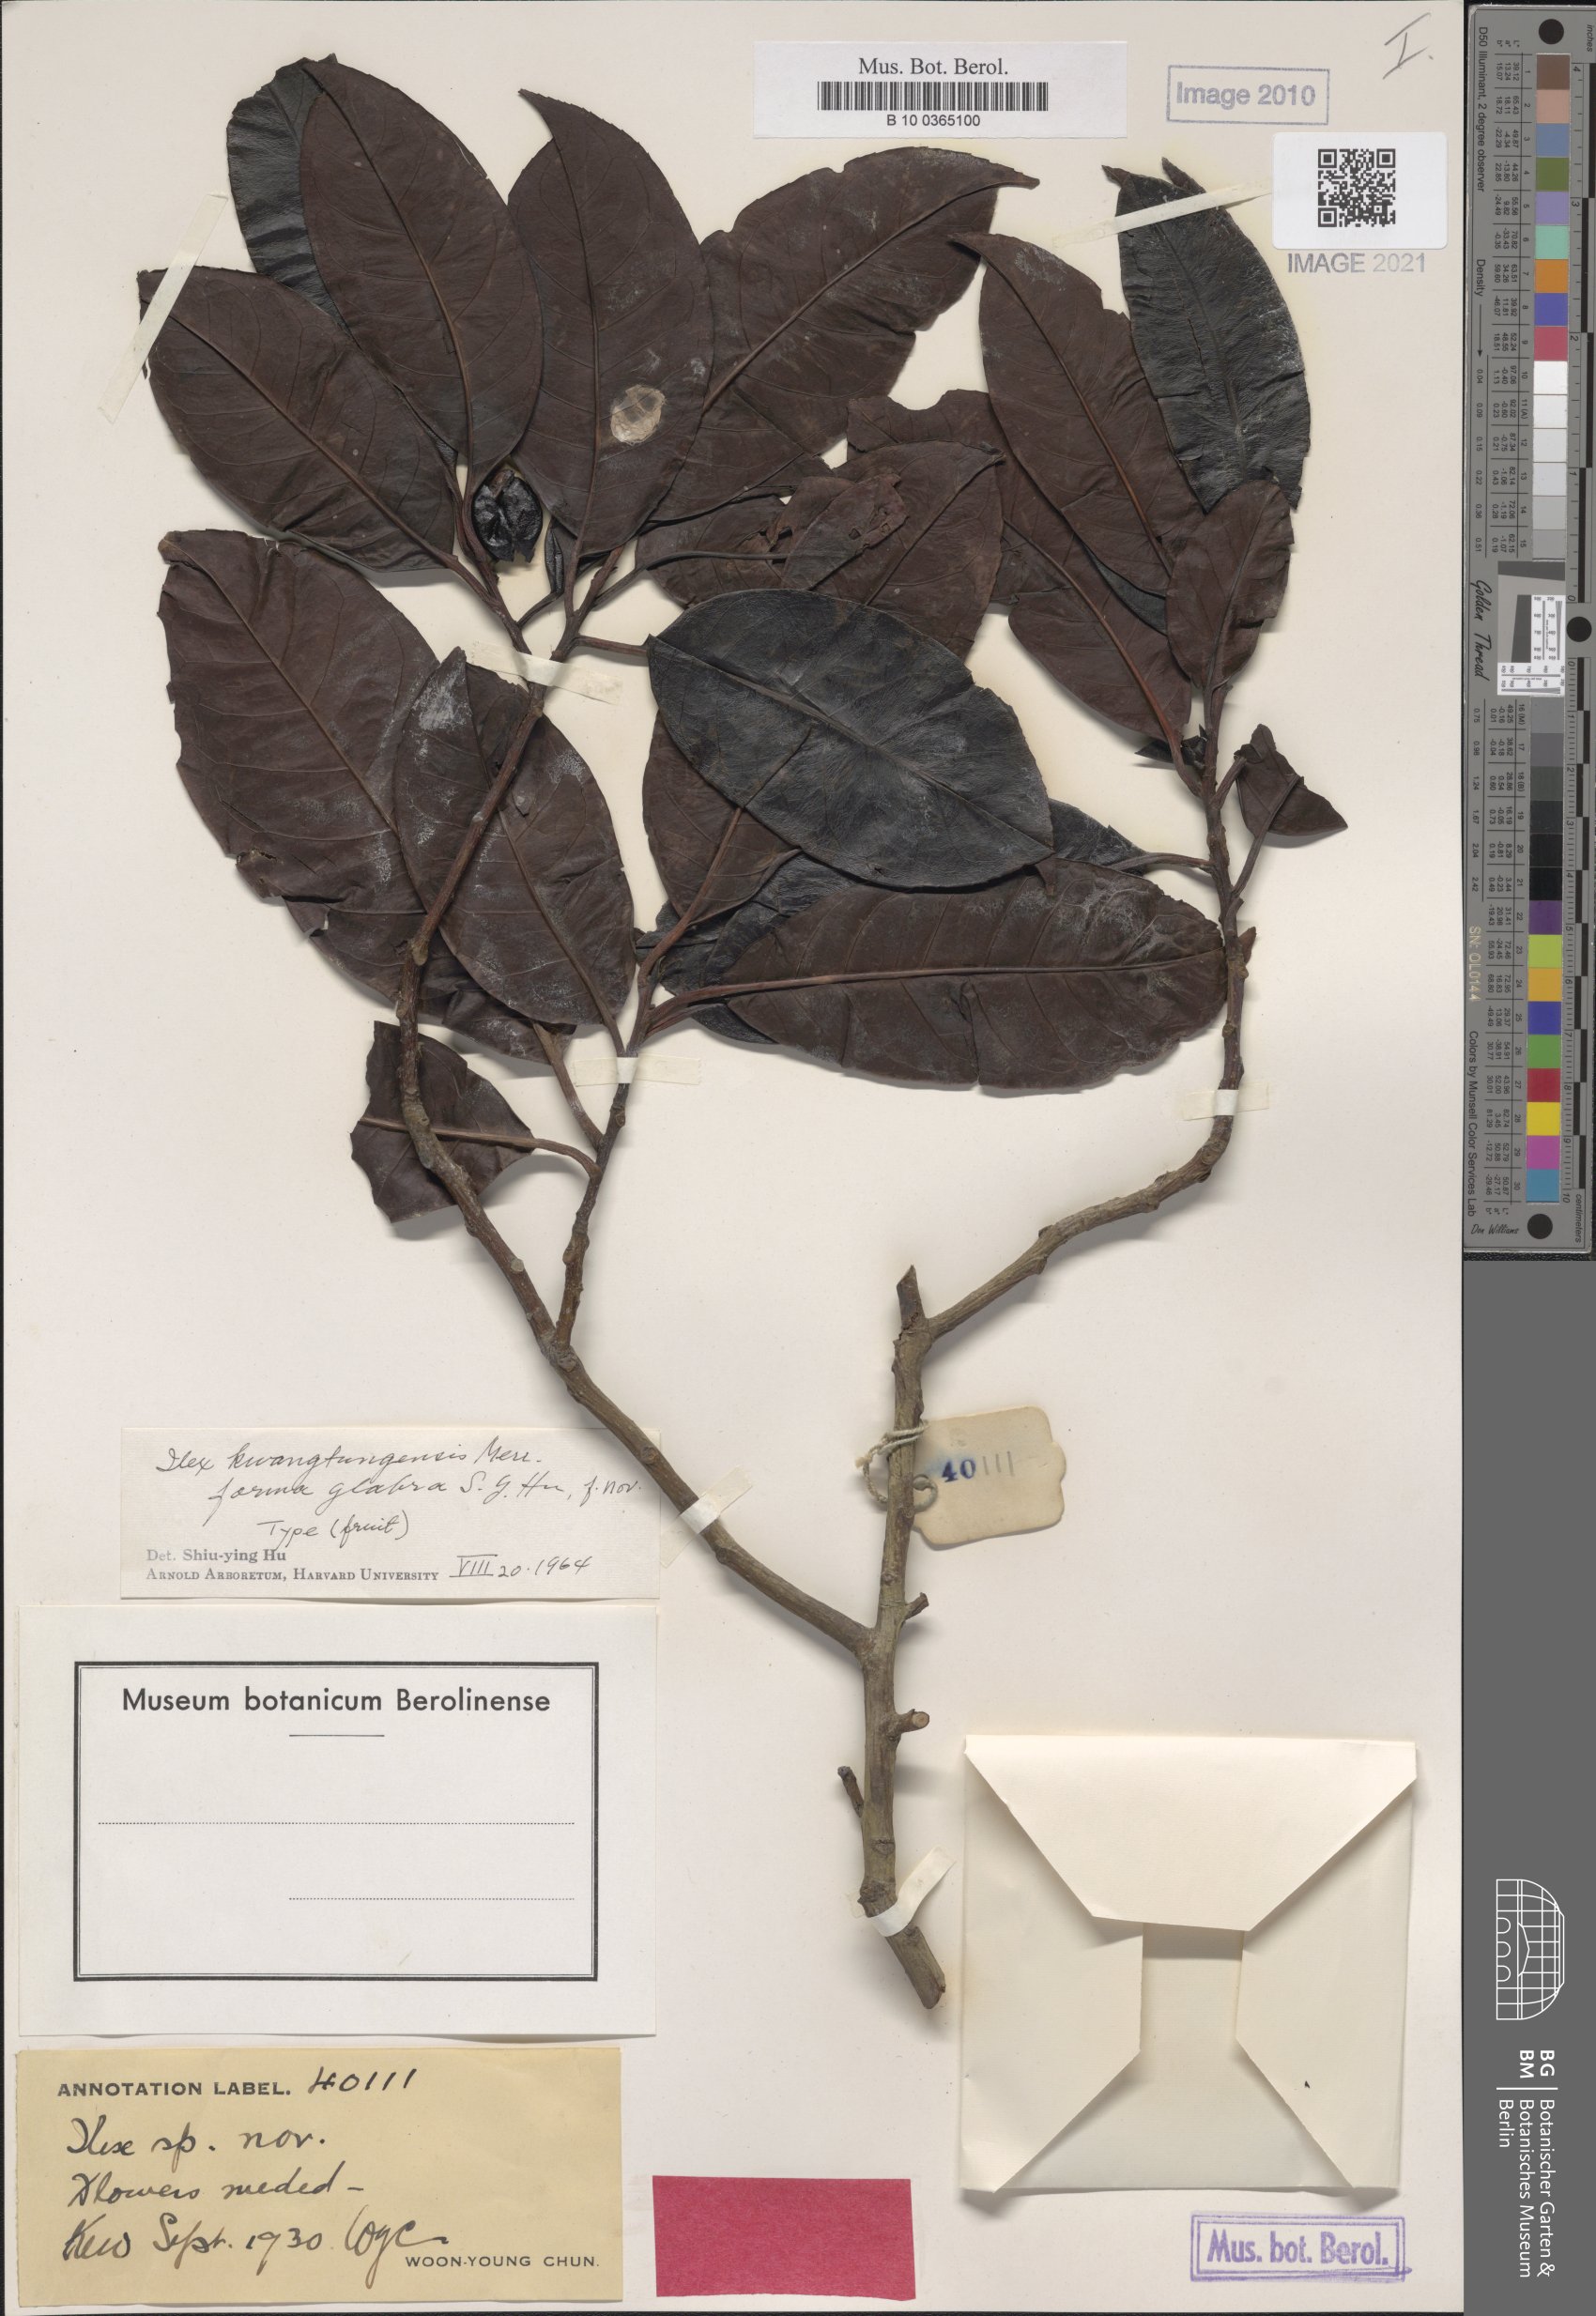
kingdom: Plantae
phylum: Tracheophyta
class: Magnoliopsida
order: Aquifoliales
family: Aquifoliaceae
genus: Ilex
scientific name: Ilex kwangtungensis
